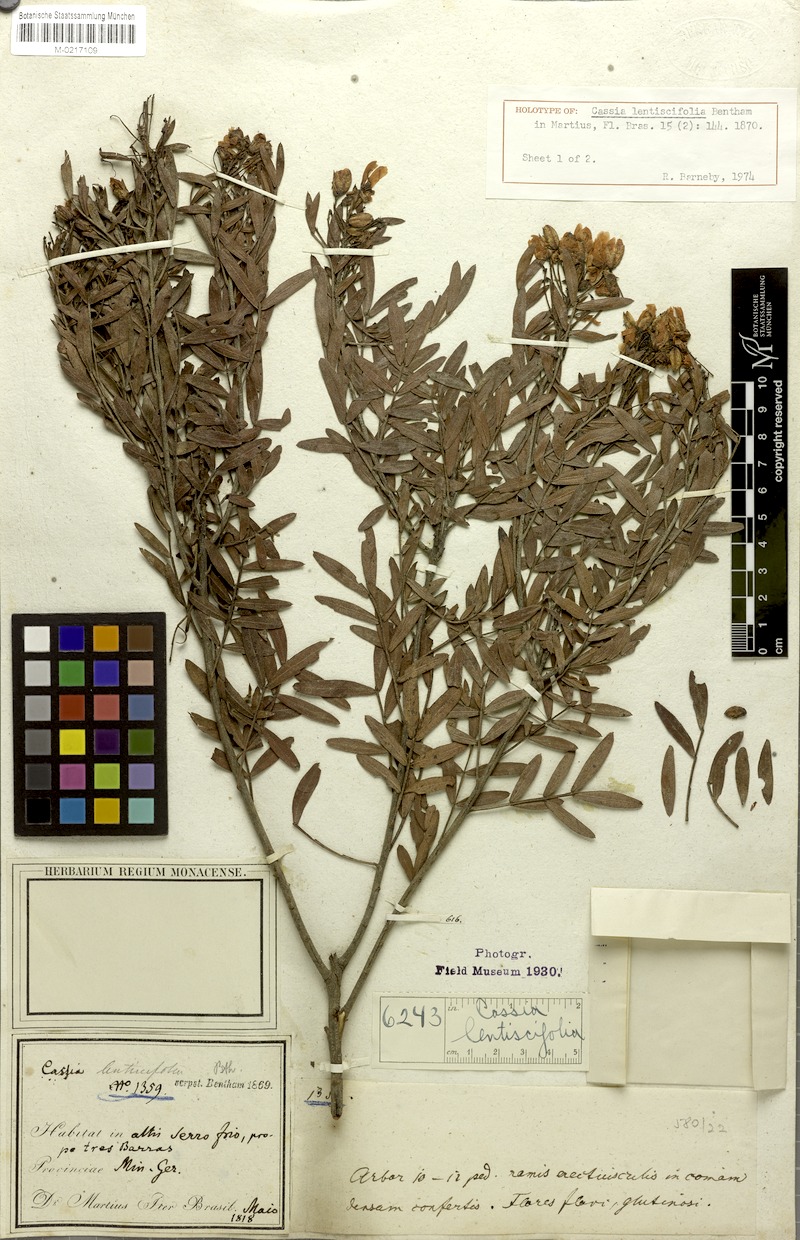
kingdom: Plantae
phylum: Tracheophyta
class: Magnoliopsida
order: Fabales
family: Fabaceae
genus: Chamaecrista
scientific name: Chamaecrista lentiscifolia
